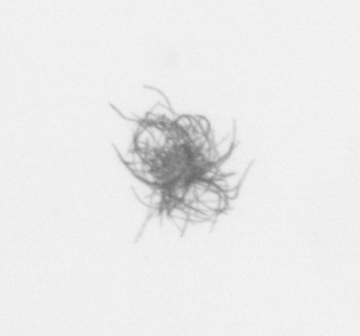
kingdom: Bacteria
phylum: Cyanobacteria
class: Cyanobacteriia
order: Cyanobacteriales
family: Microcoleaceae
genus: Trichodesmium
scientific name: Trichodesmium
